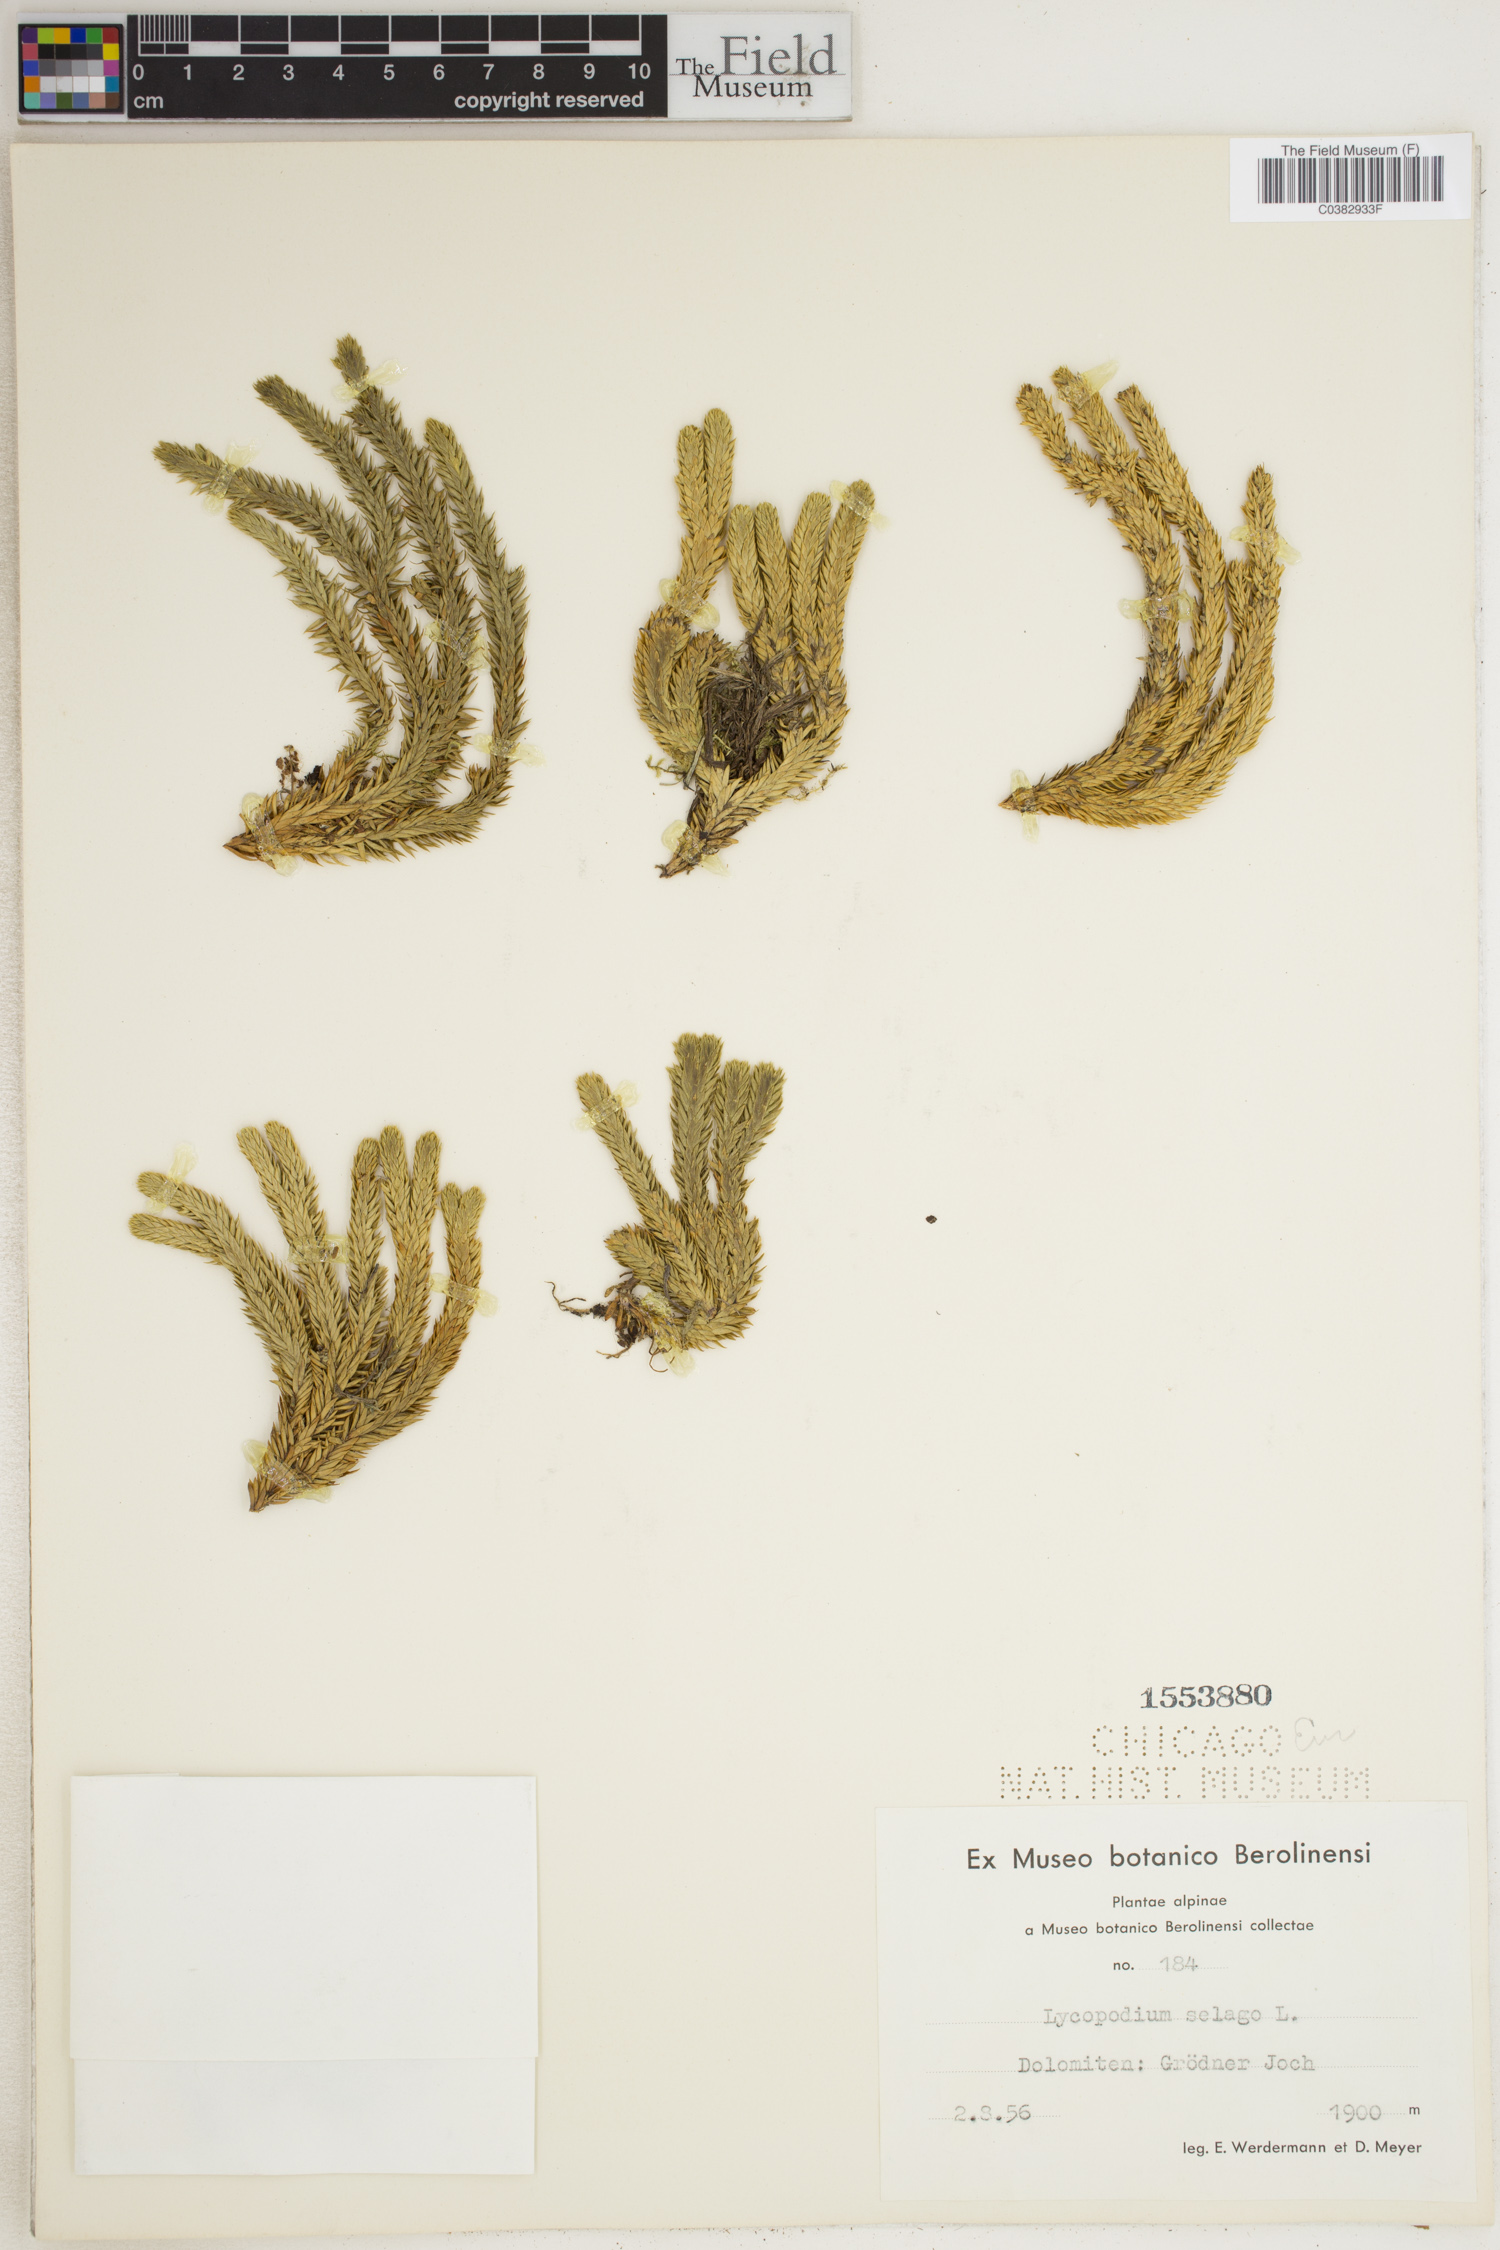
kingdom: Plantae
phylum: Tracheophyta
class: Lycopodiopsida
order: Lycopodiales
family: Lycopodiaceae
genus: Huperzia
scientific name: Huperzia selago
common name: Northern firmoss
